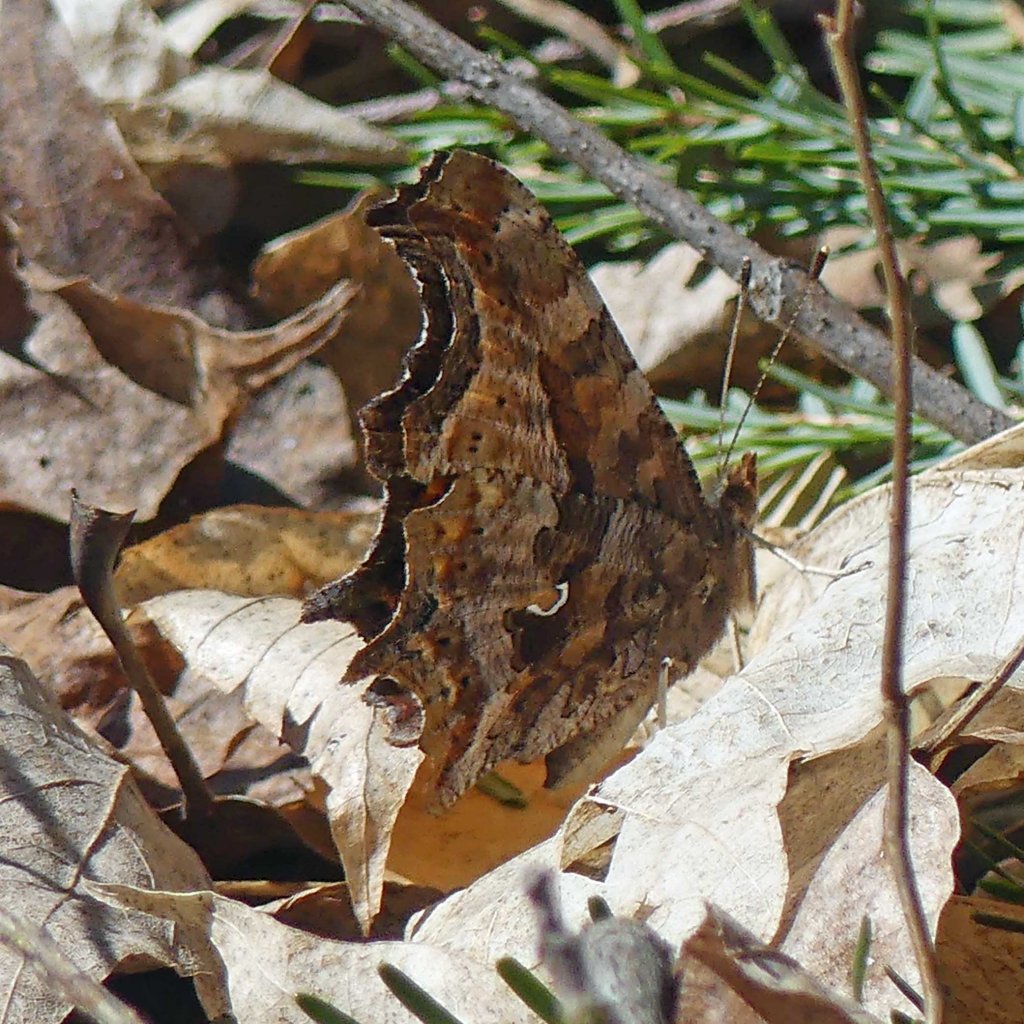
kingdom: Animalia
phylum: Arthropoda
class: Insecta
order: Lepidoptera
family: Nymphalidae
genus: Polygonia
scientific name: Polygonia comma
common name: Eastern Comma
